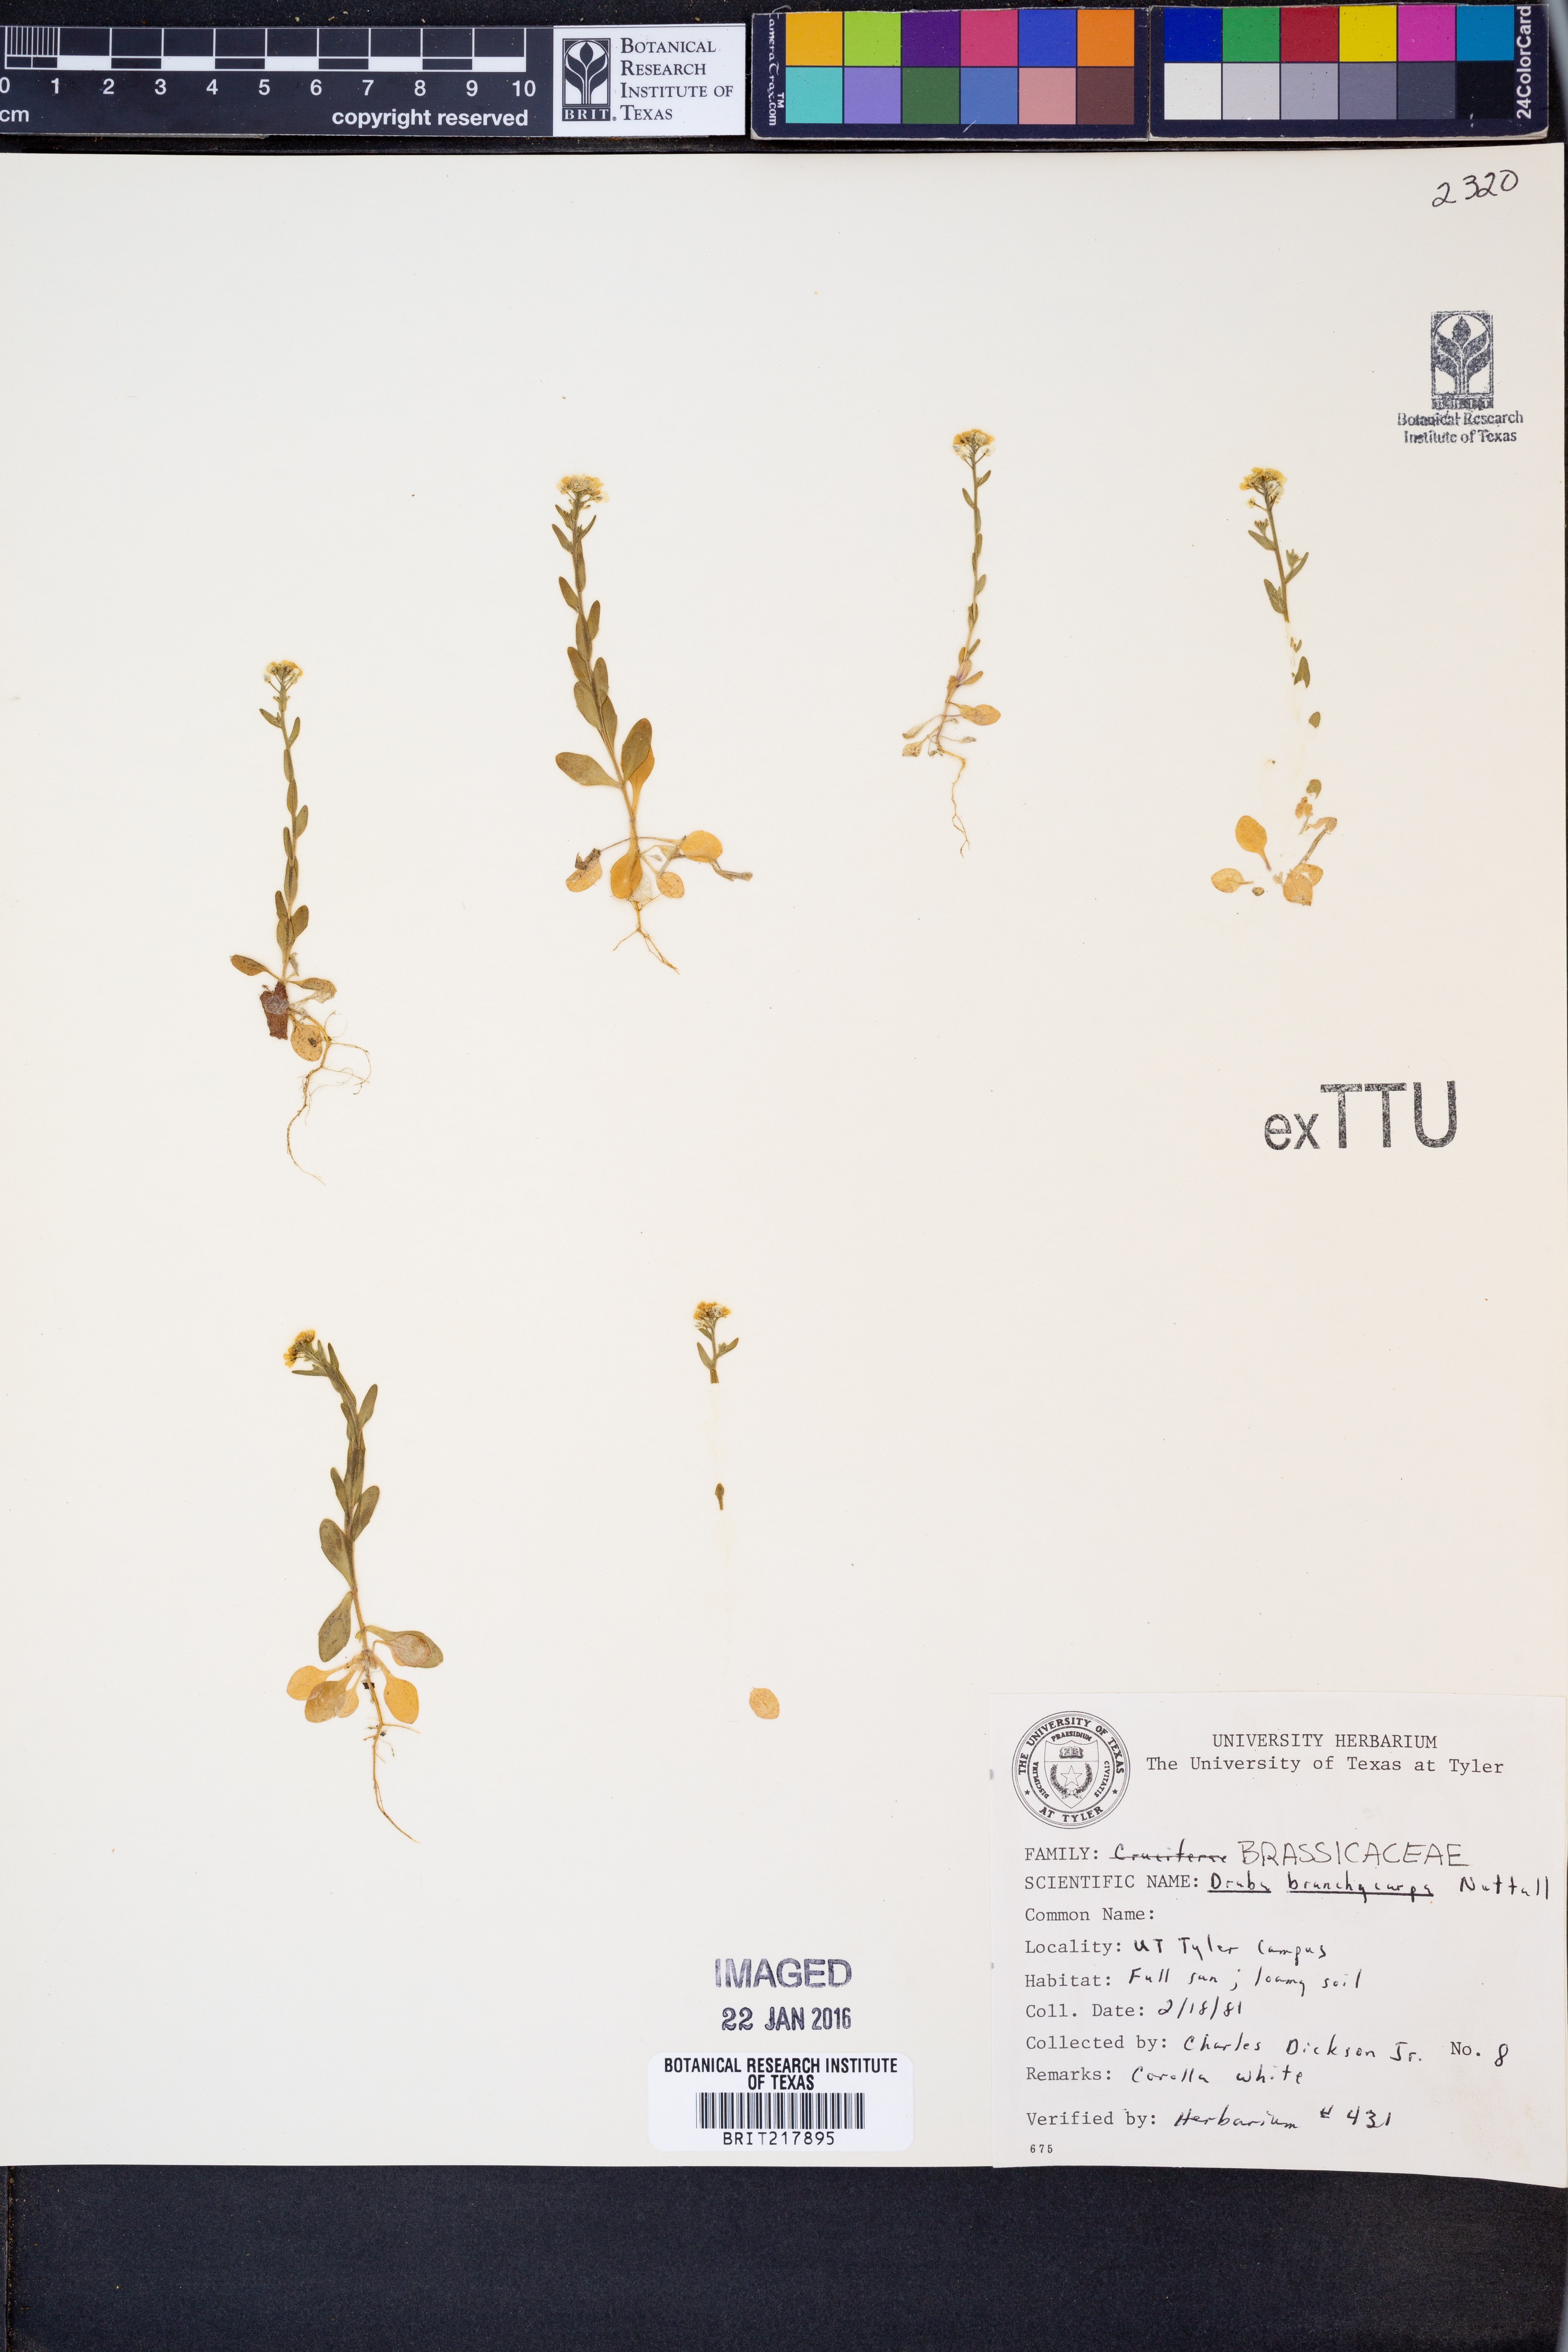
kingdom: Plantae
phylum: Tracheophyta
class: Magnoliopsida
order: Brassicales
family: Brassicaceae
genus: Abdra
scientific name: Abdra brachycarpa
